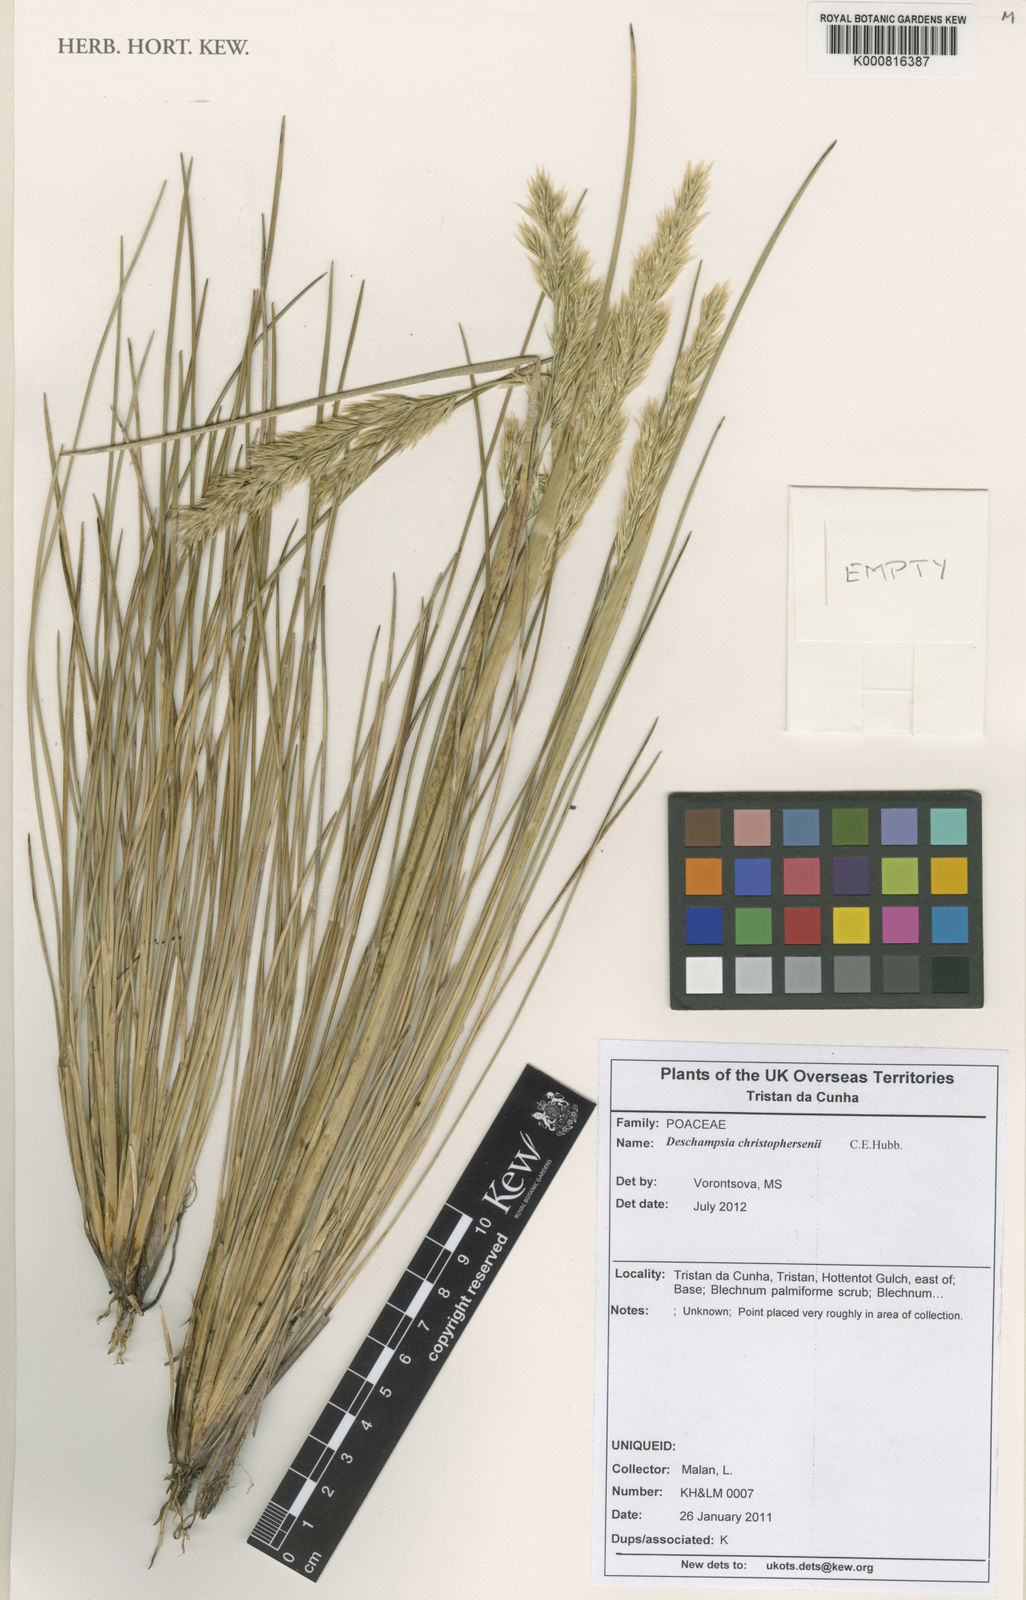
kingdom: Plantae
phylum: Tracheophyta
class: Liliopsida
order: Poales
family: Poaceae
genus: Deschampsia
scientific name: Deschampsia christophersenii
